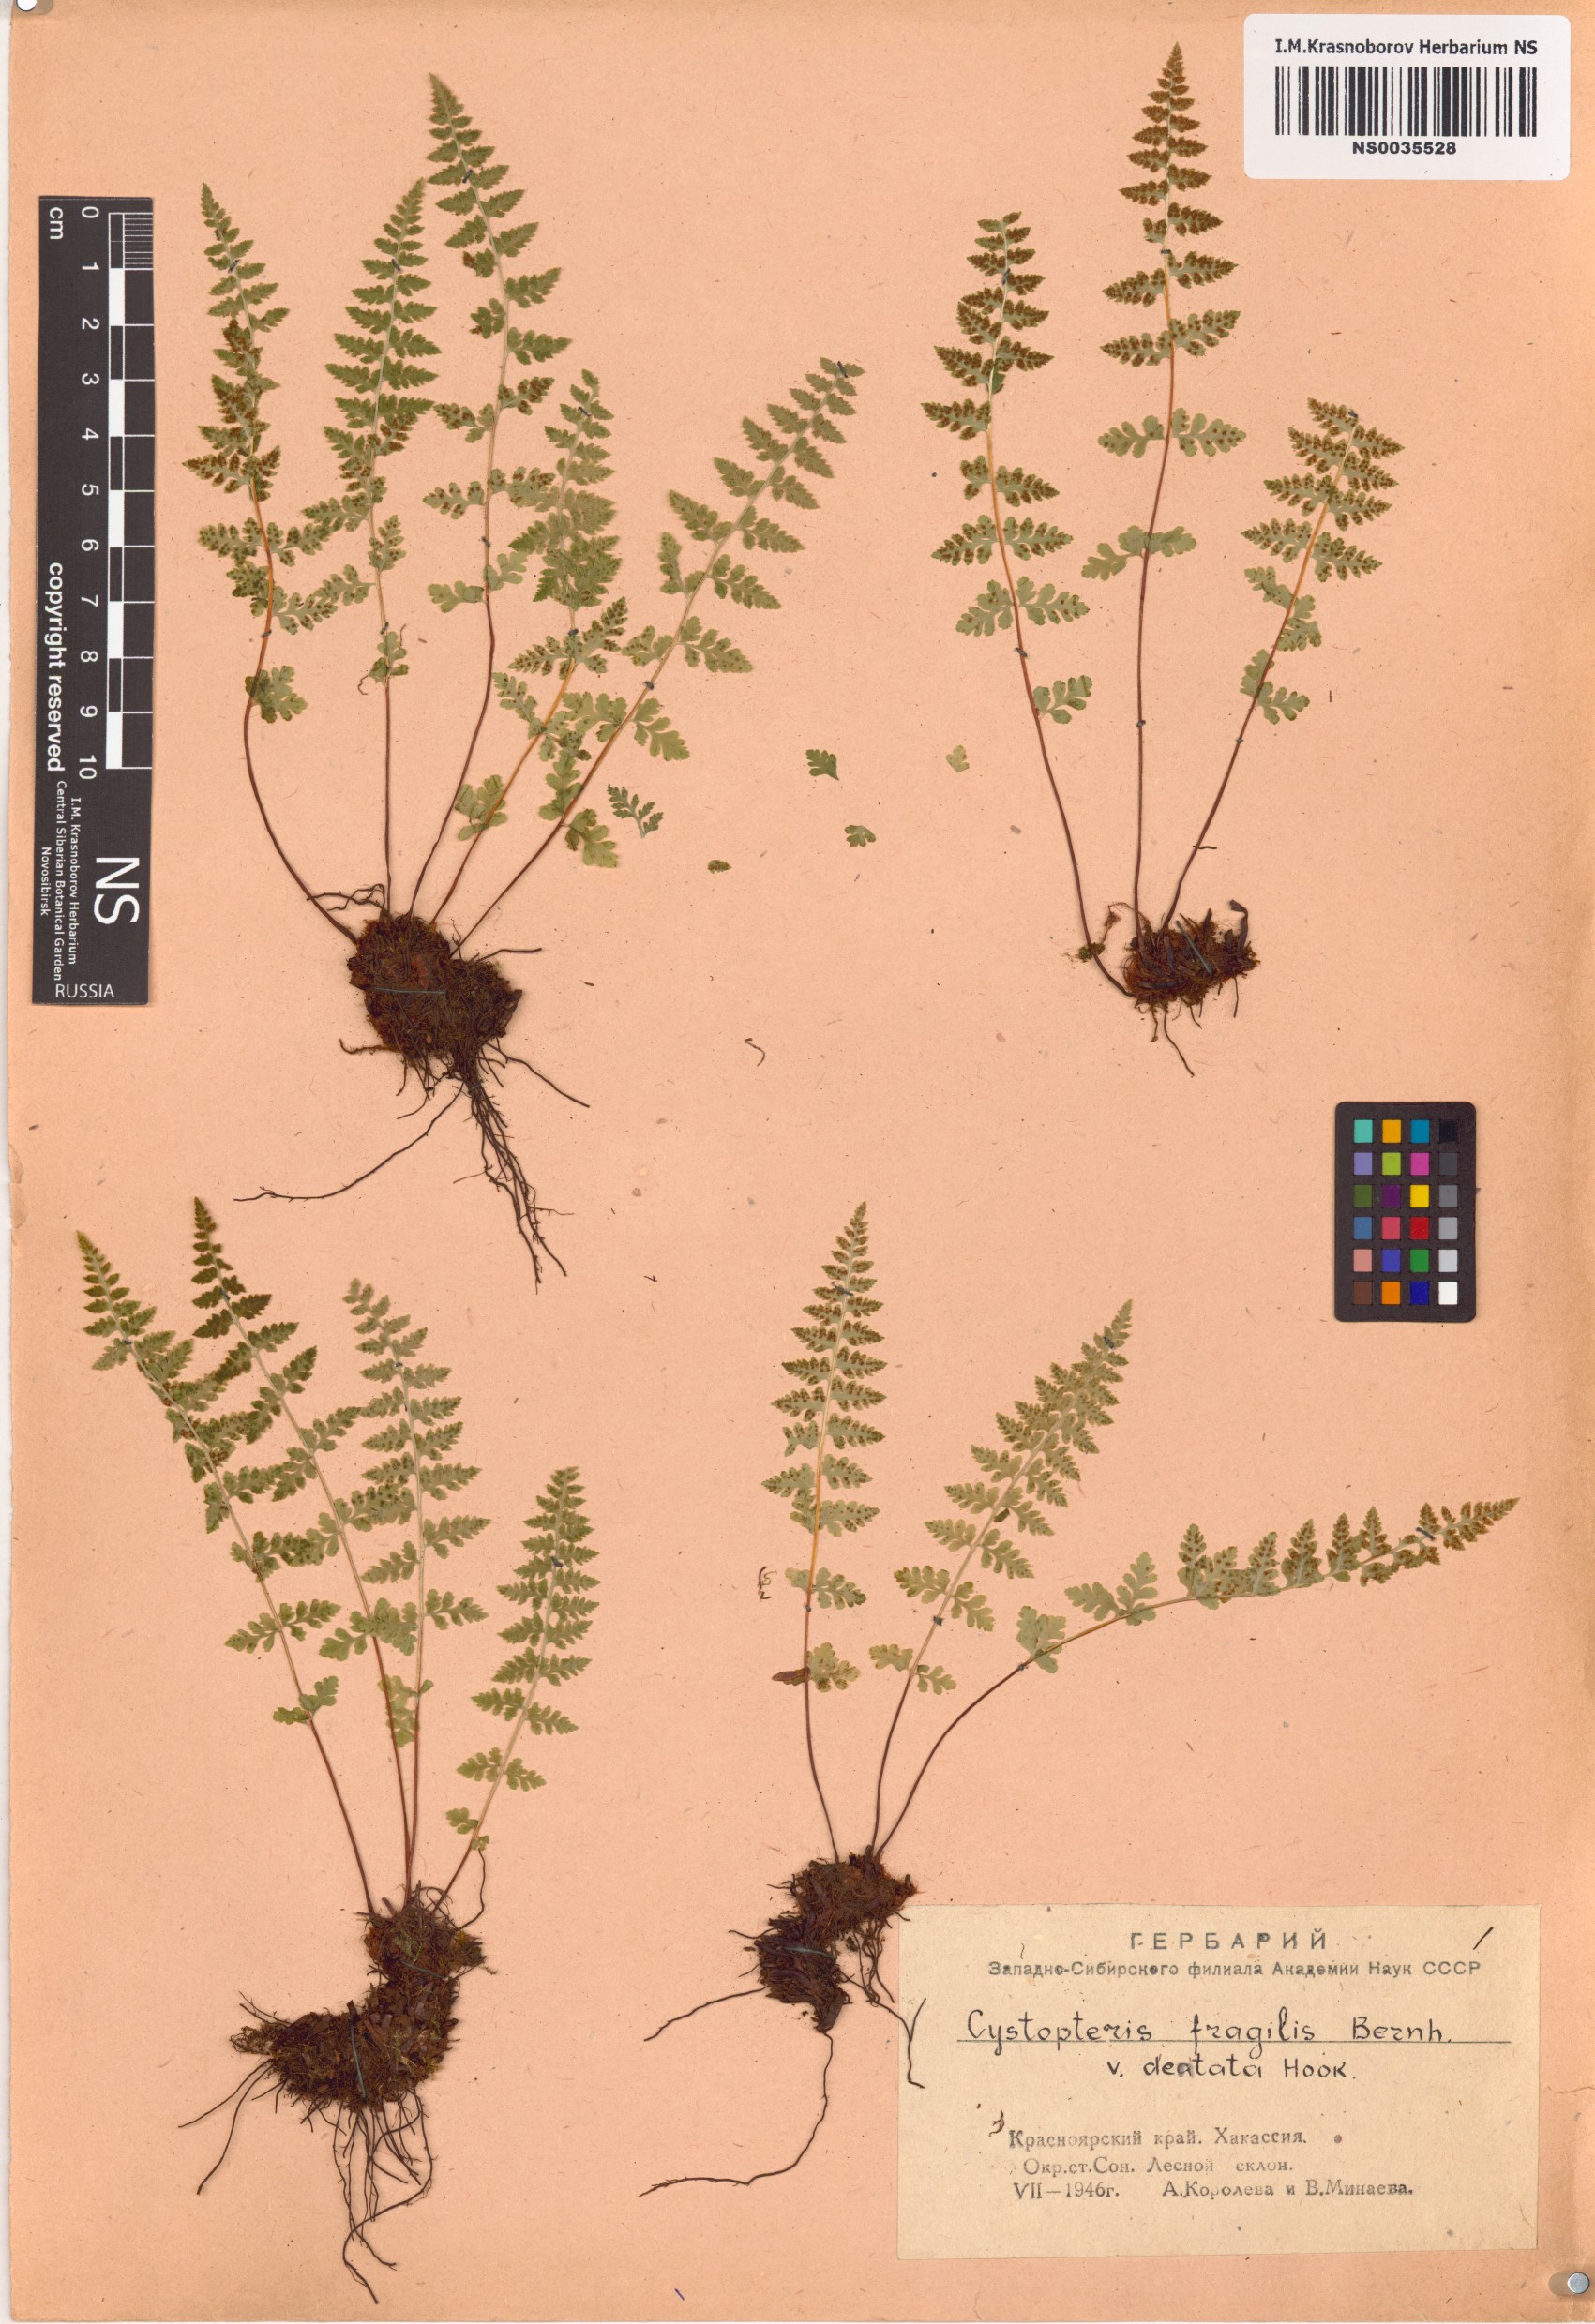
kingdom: Plantae
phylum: Tracheophyta
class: Polypodiopsida
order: Polypodiales
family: Cystopteridaceae
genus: Cystopteris
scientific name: Cystopteris fragilis
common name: Brittle bladder fern
